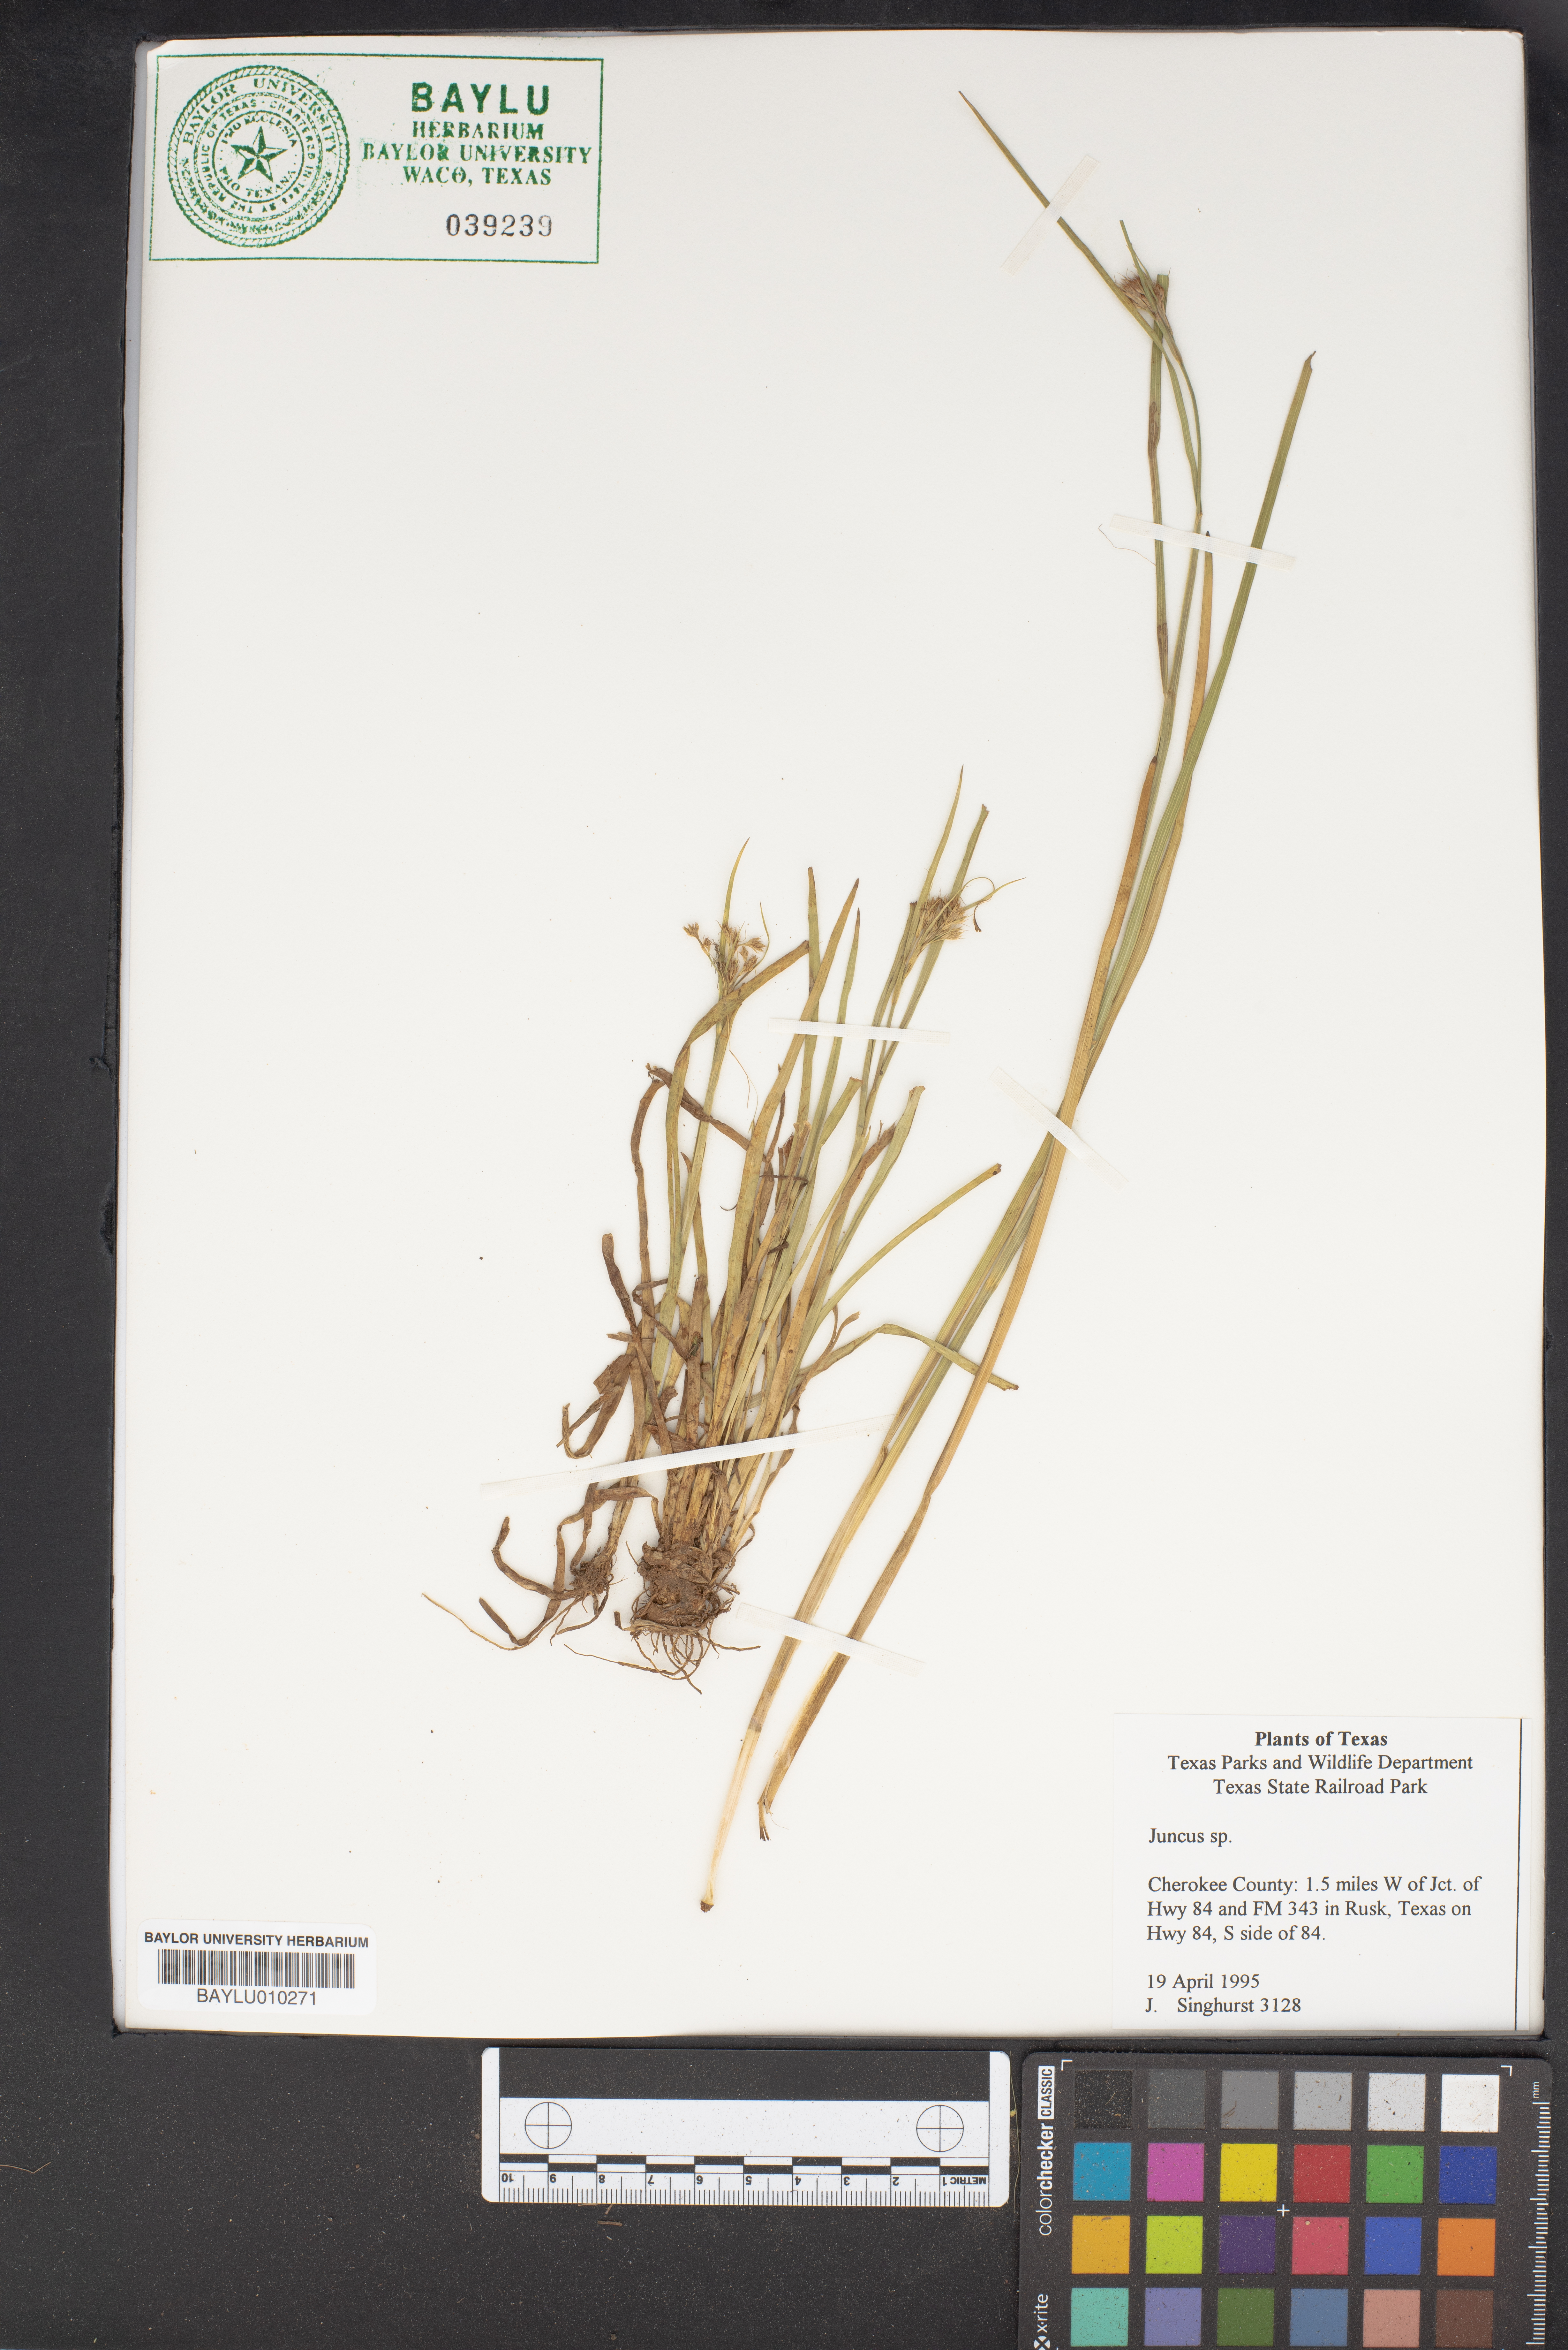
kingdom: Plantae
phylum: Tracheophyta
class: Liliopsida
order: Poales
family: Juncaceae
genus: Juncus
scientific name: Juncus sphaerocarpus
